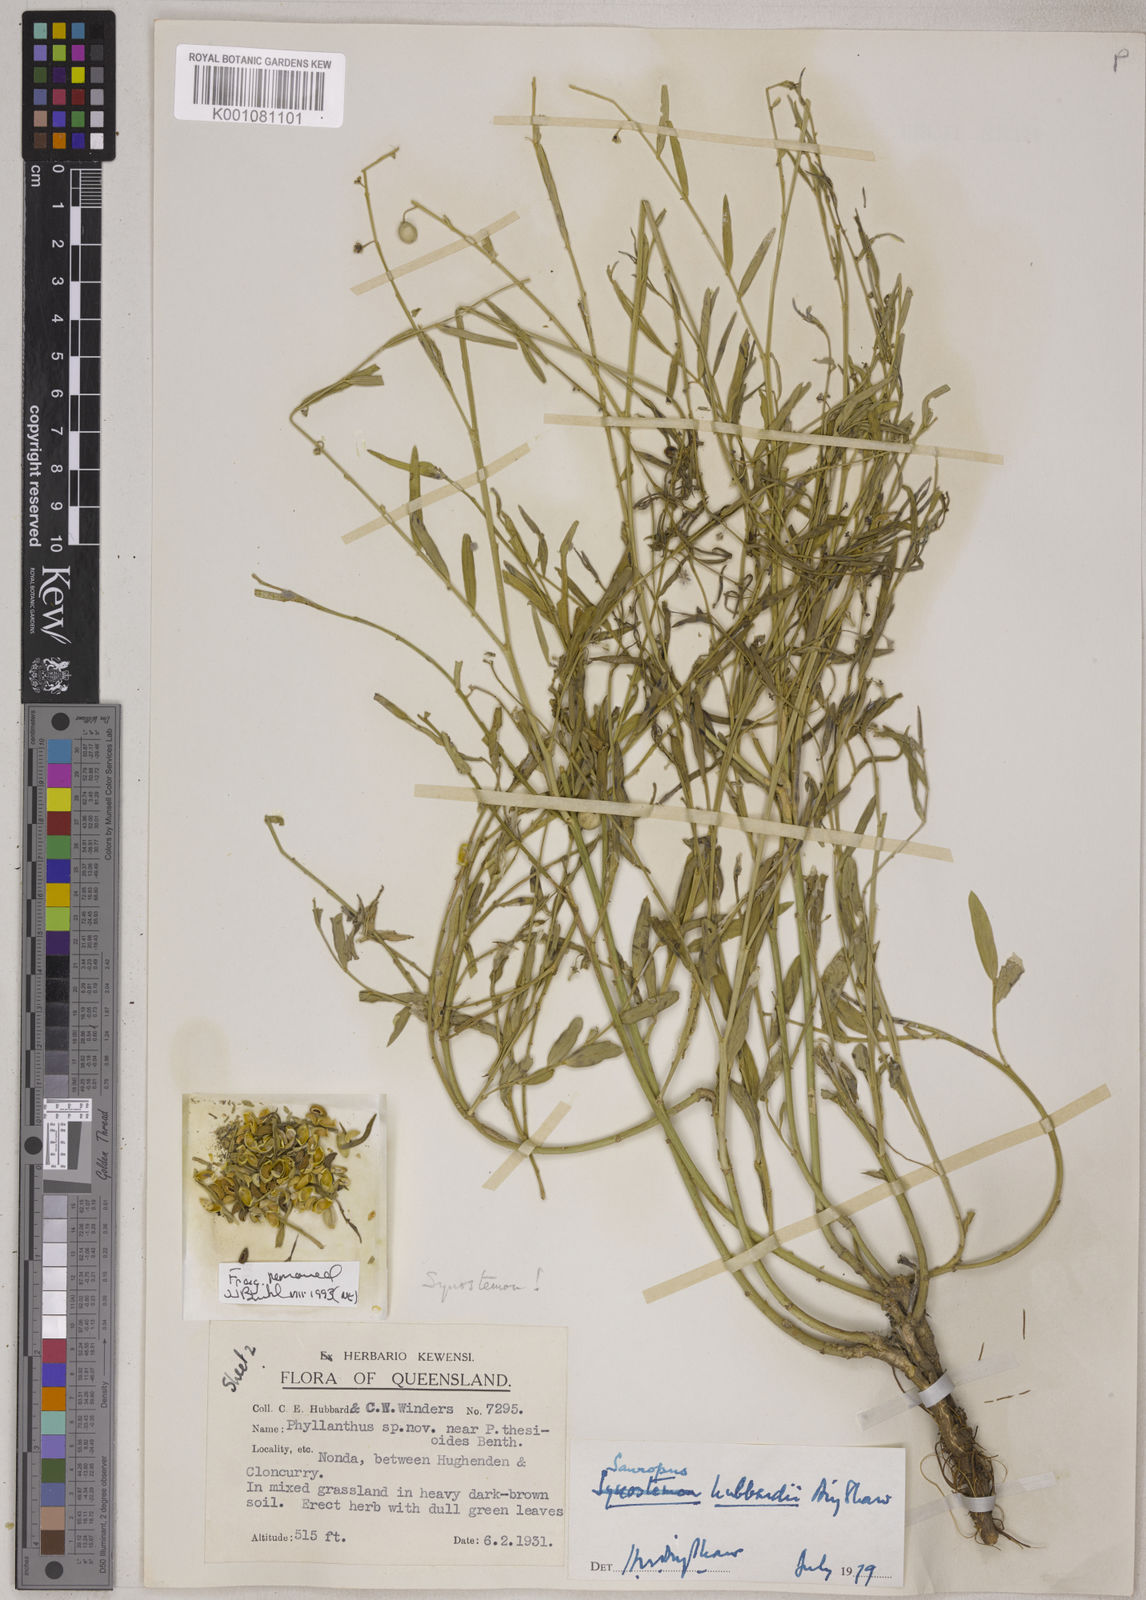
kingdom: Plantae
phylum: Tracheophyta
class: Magnoliopsida
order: Malpighiales
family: Phyllanthaceae
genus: Synostemon
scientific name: Synostemon trachyspermus
